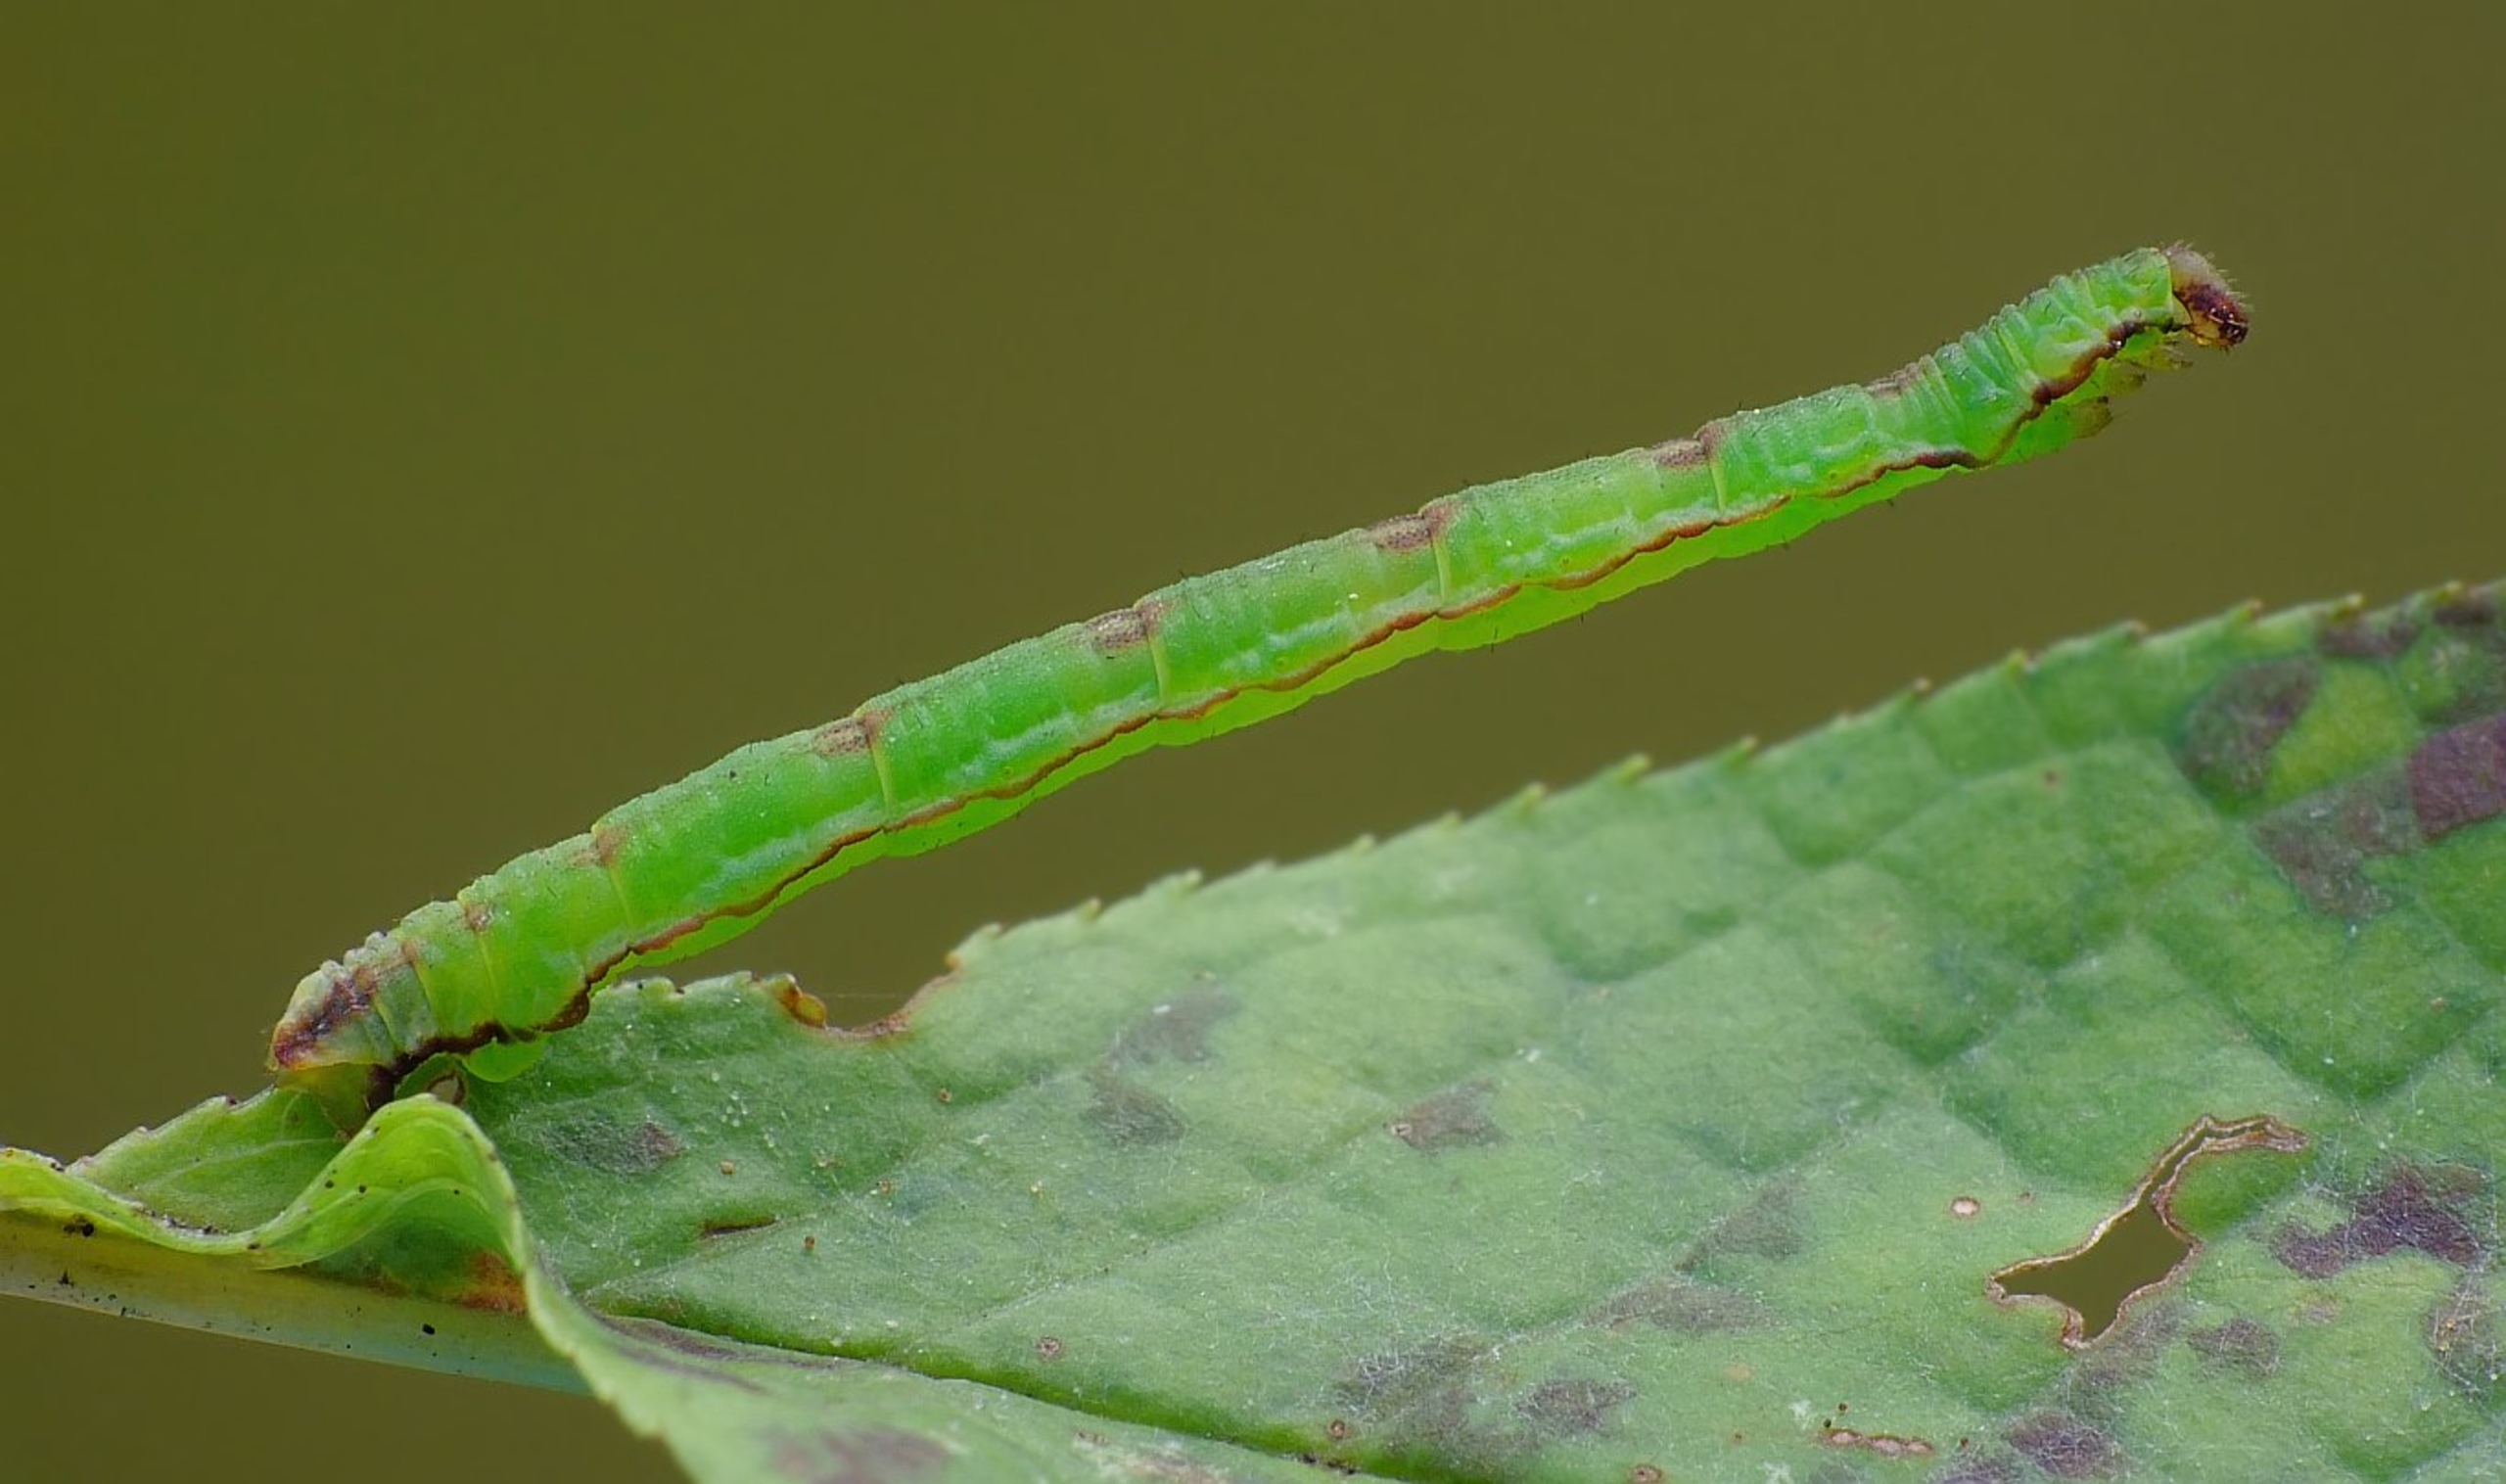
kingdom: Animalia
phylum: Arthropoda
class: Insecta
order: Lepidoptera
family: Geometridae
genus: Eupithecia
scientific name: Eupithecia exiguata
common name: Stregdværgmåler
